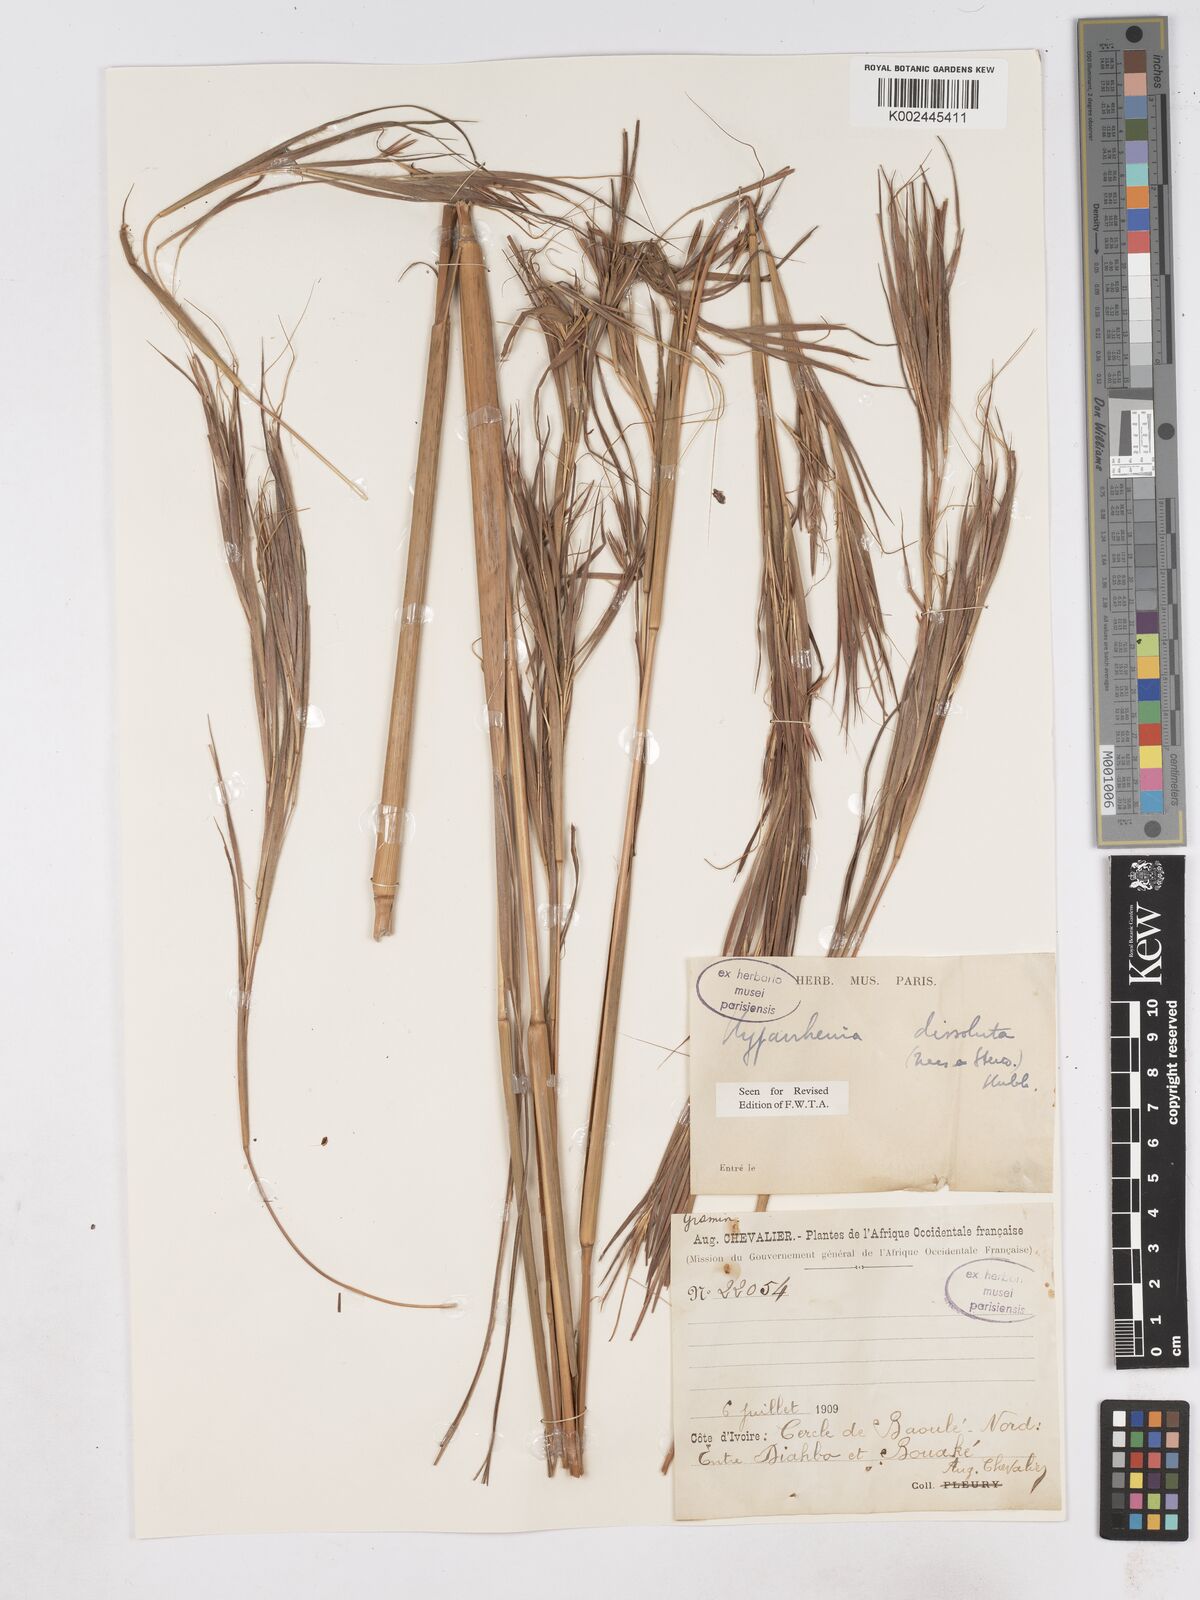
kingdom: Plantae
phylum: Tracheophyta
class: Liliopsida
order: Poales
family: Poaceae
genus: Hyperthelia
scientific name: Hyperthelia dissoluta
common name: Yellow thatching grass
